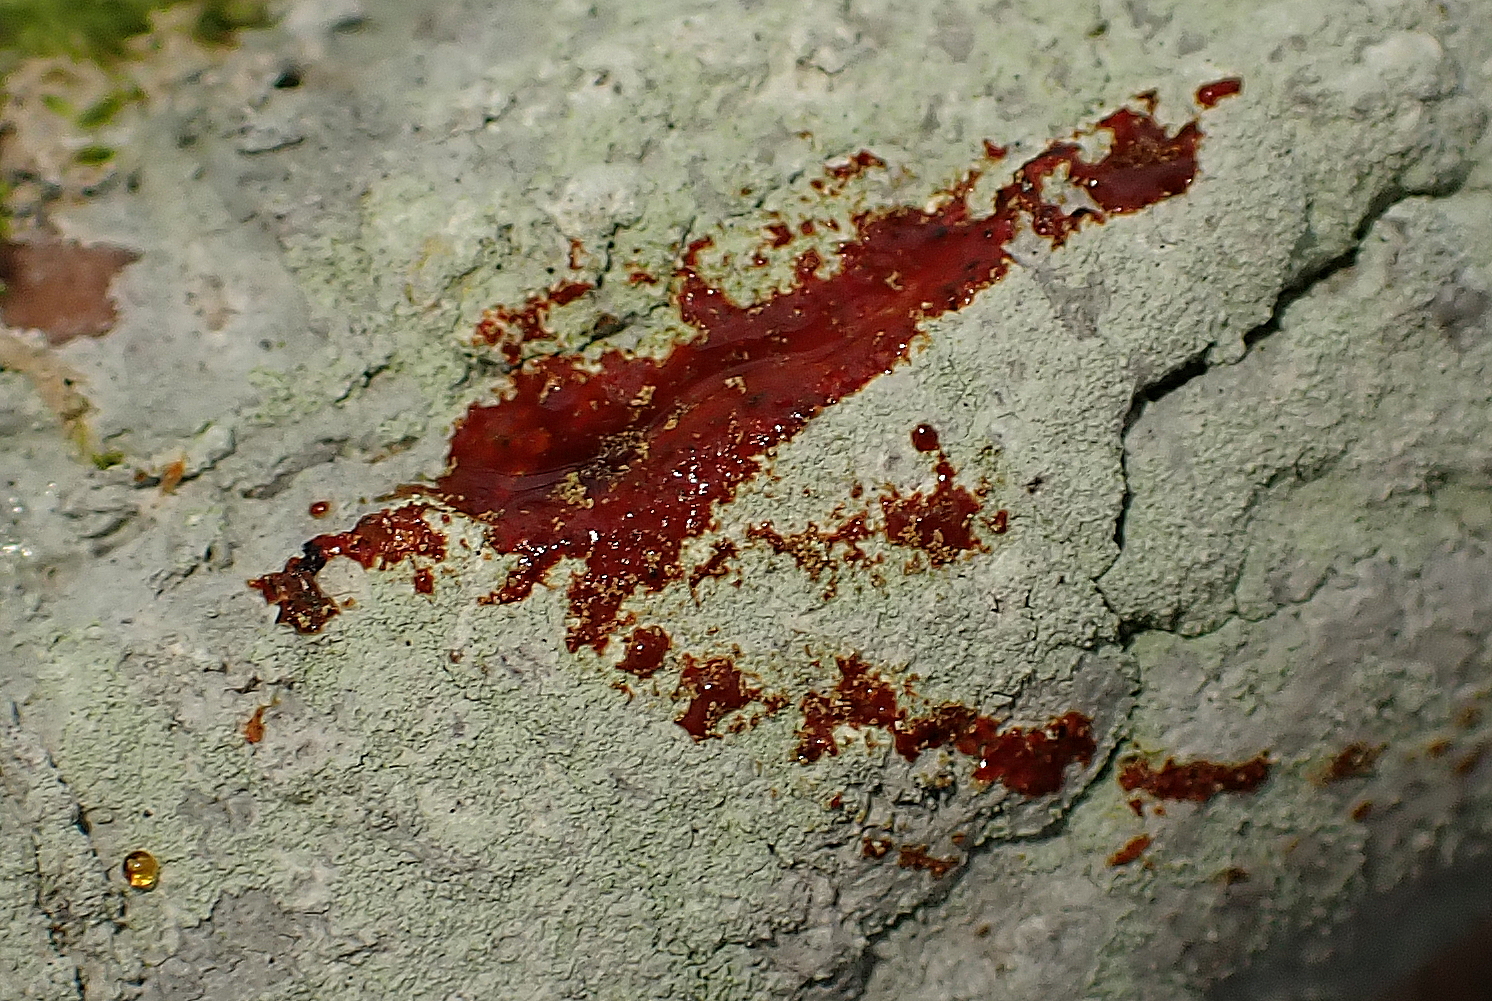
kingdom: Fungi
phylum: Ascomycota
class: Lecanoromycetes
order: Ostropales
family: Phlyctidaceae
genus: Phlyctis
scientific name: Phlyctis argena
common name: almindelig sølvlav
